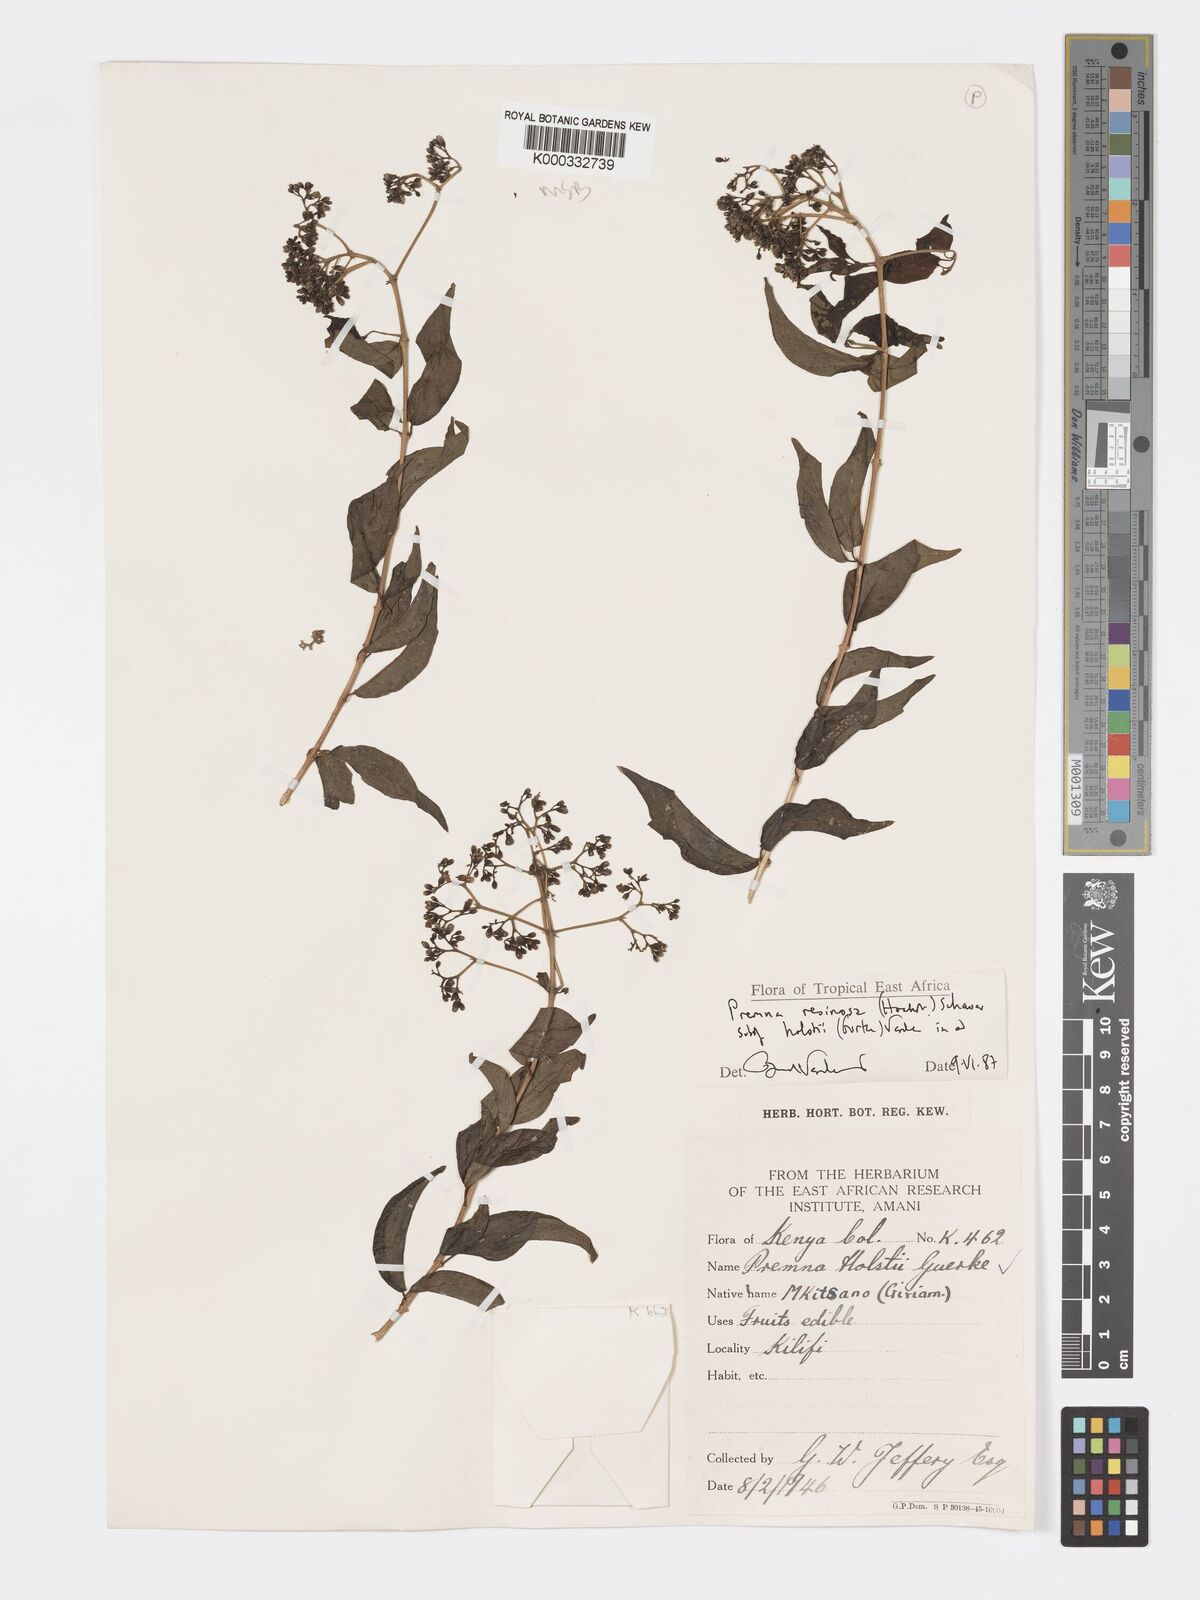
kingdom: Plantae
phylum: Tracheophyta
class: Magnoliopsida
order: Lamiales
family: Lamiaceae
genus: Premna
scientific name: Premna resinosa
